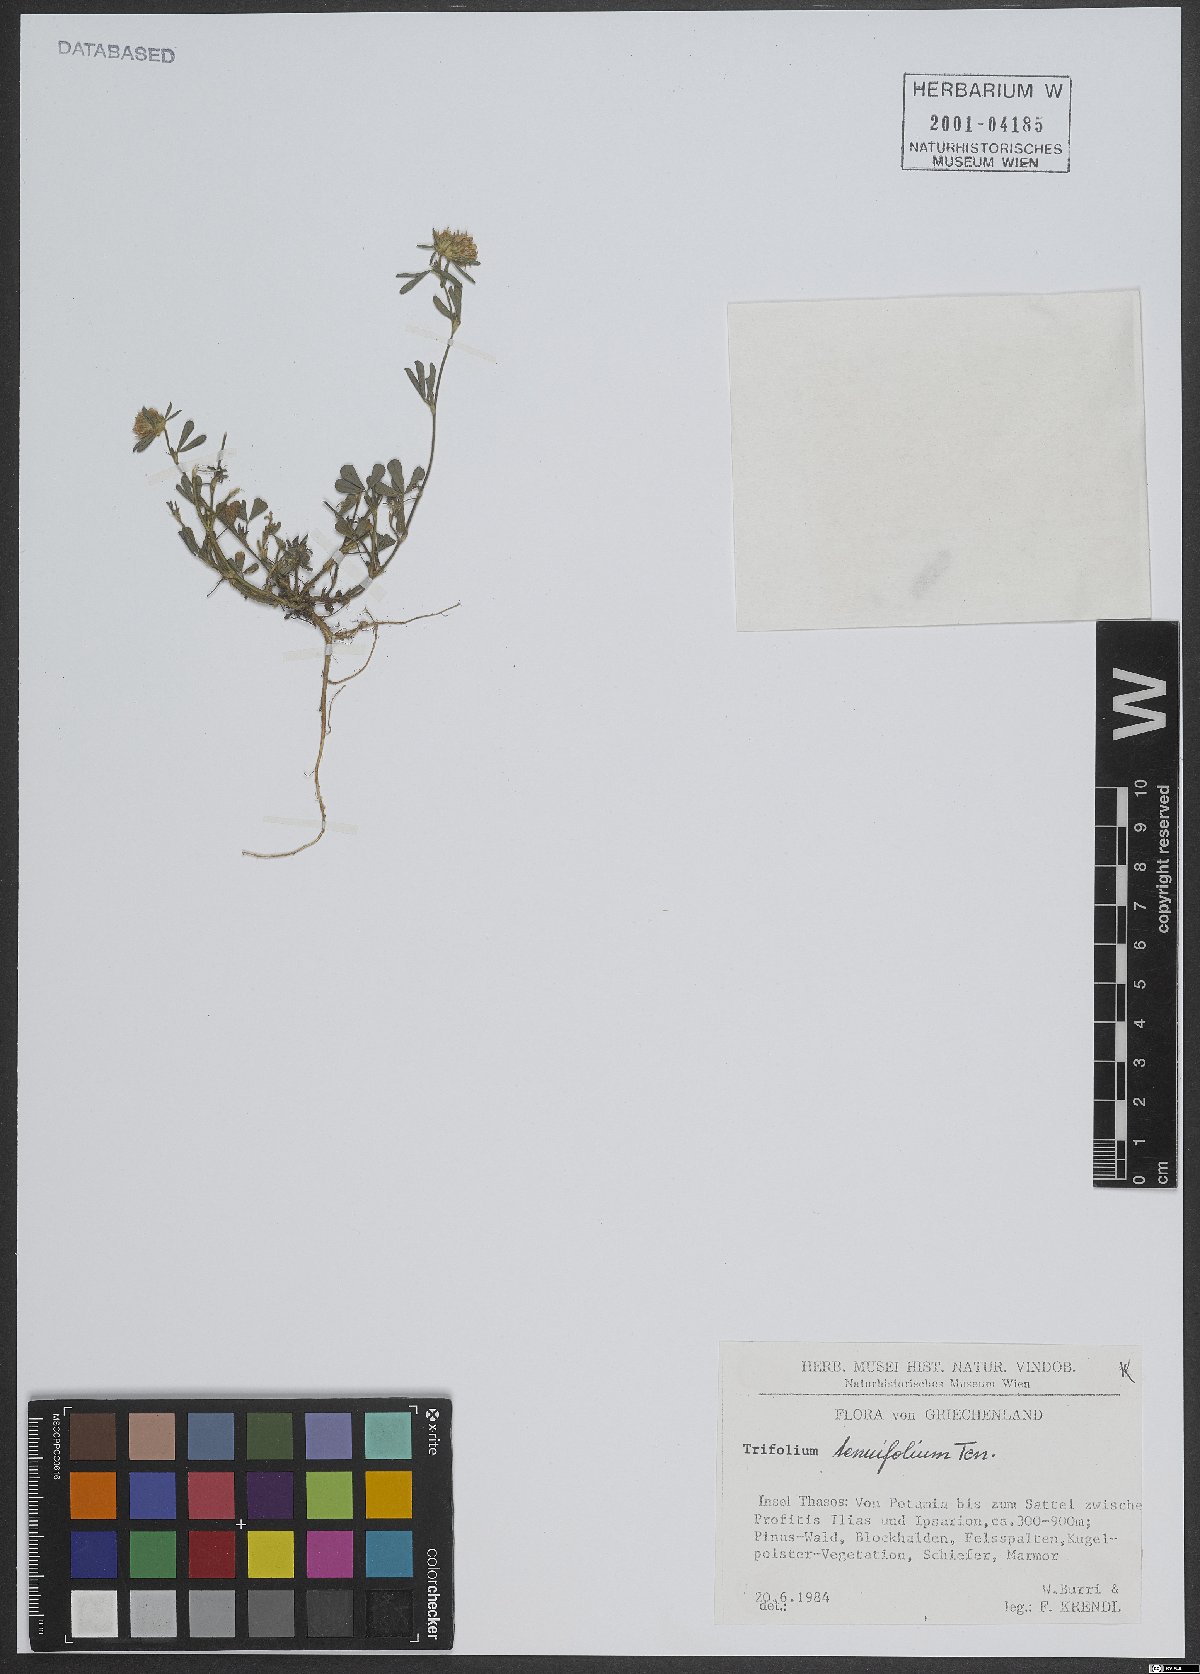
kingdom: Plantae
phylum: Tracheophyta
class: Magnoliopsida
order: Fabales
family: Fabaceae
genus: Trifolium
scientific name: Trifolium tenuifolium
